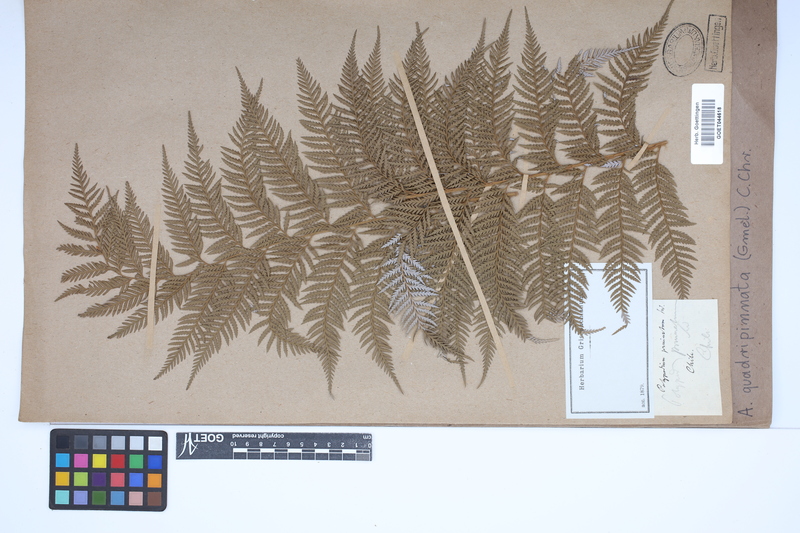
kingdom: Plantae
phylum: Tracheophyta
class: Polypodiopsida
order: Cyatheales
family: Dicksoniaceae
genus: Lophosoria
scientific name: Lophosoria quadripinnata
